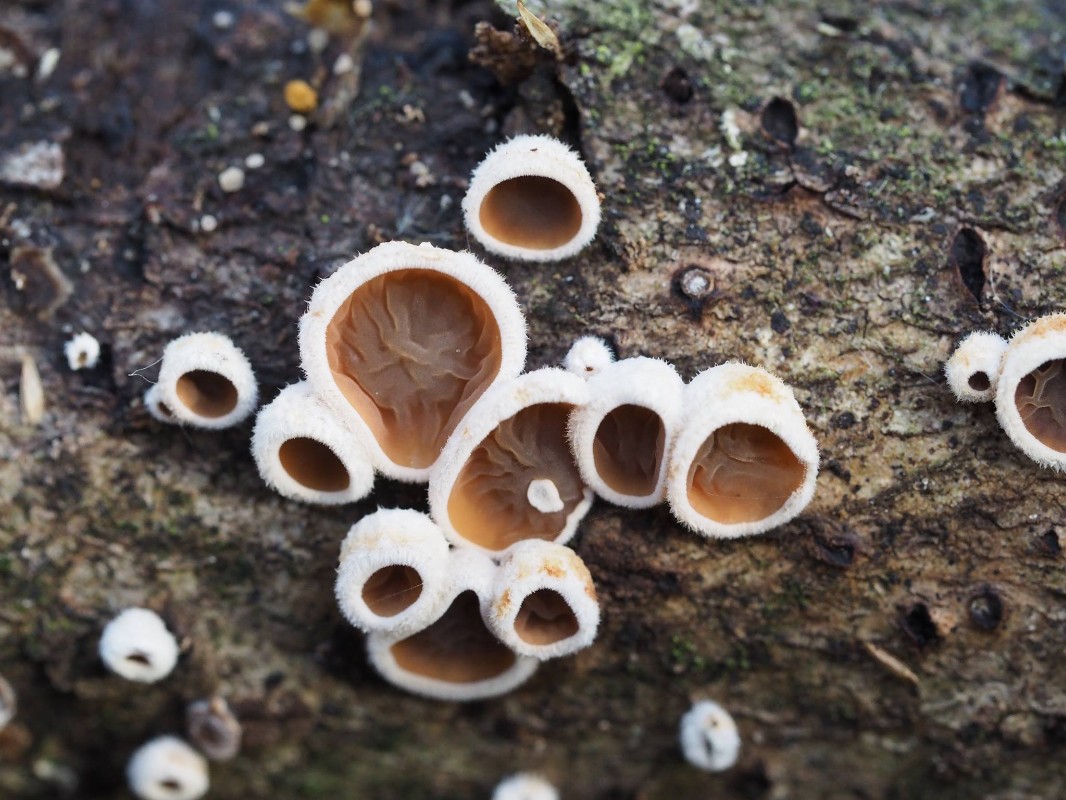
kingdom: Fungi
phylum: Basidiomycota
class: Agaricomycetes
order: Agaricales
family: Schizophyllaceae
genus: Schizophyllum
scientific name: Schizophyllum amplum
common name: poppel-hængeøre
